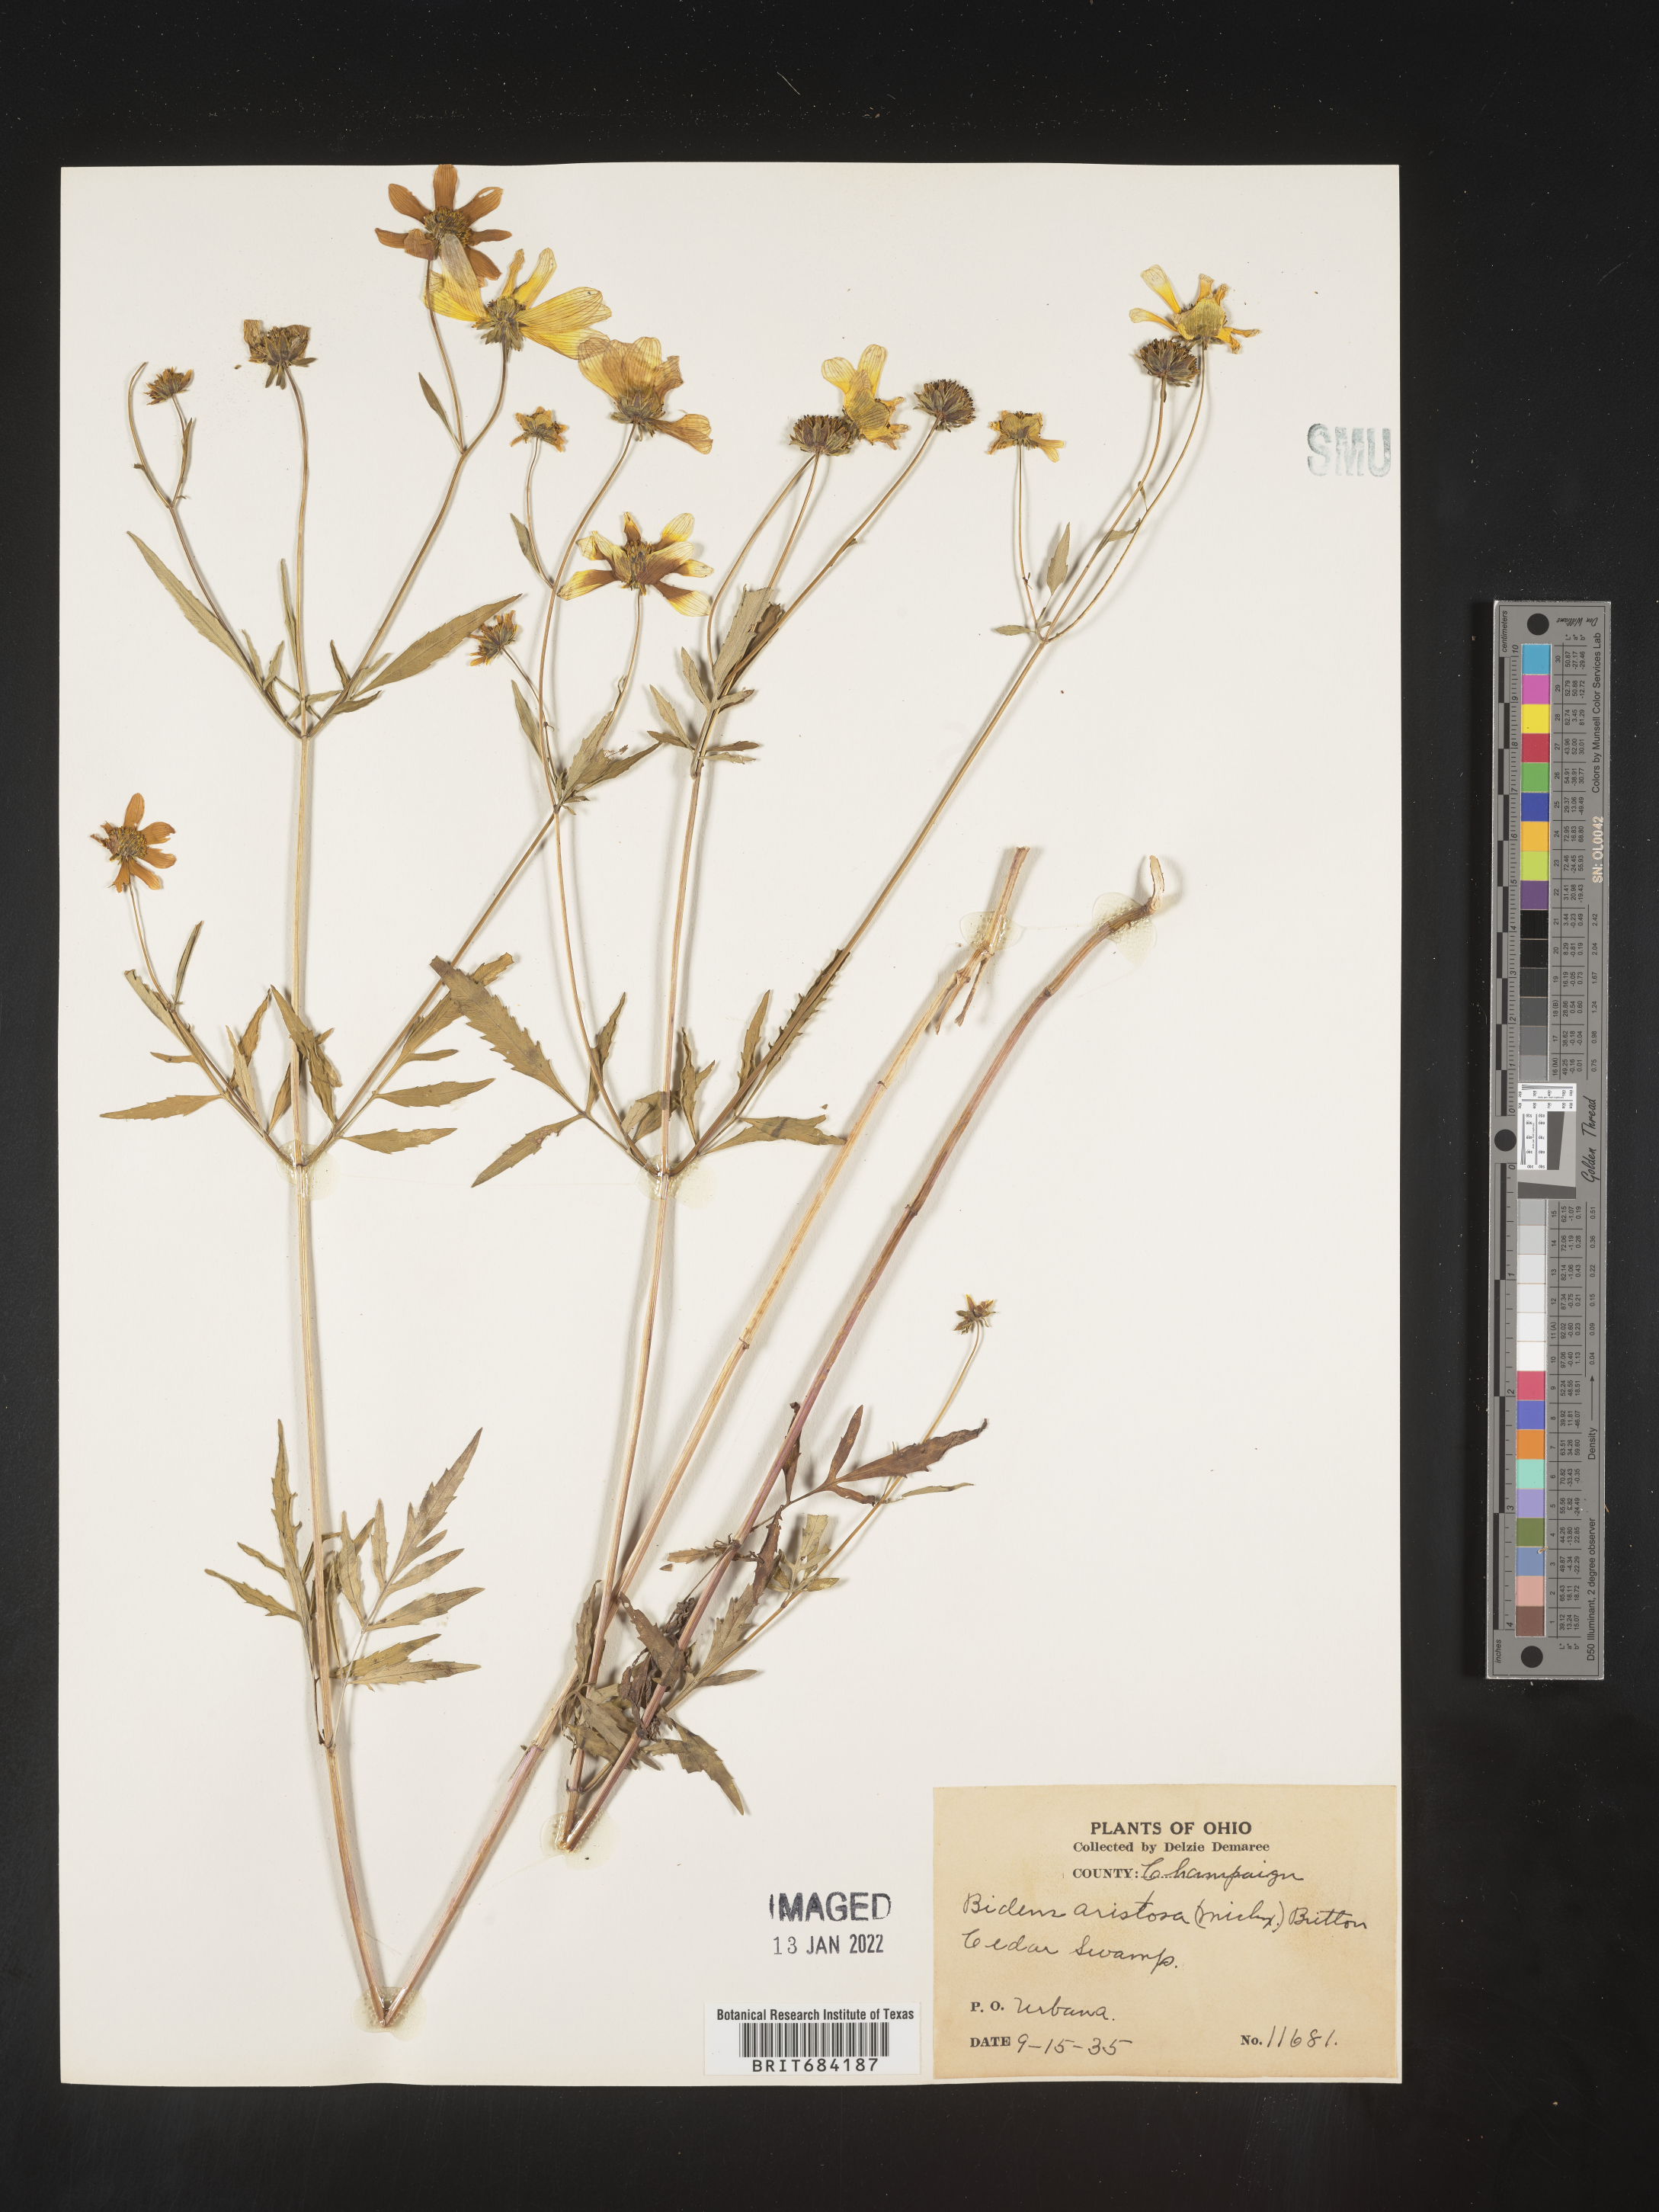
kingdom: Plantae
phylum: Tracheophyta
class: Magnoliopsida
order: Asterales
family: Asteraceae
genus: Bidens
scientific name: Bidens aristosa
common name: Western tickseed
